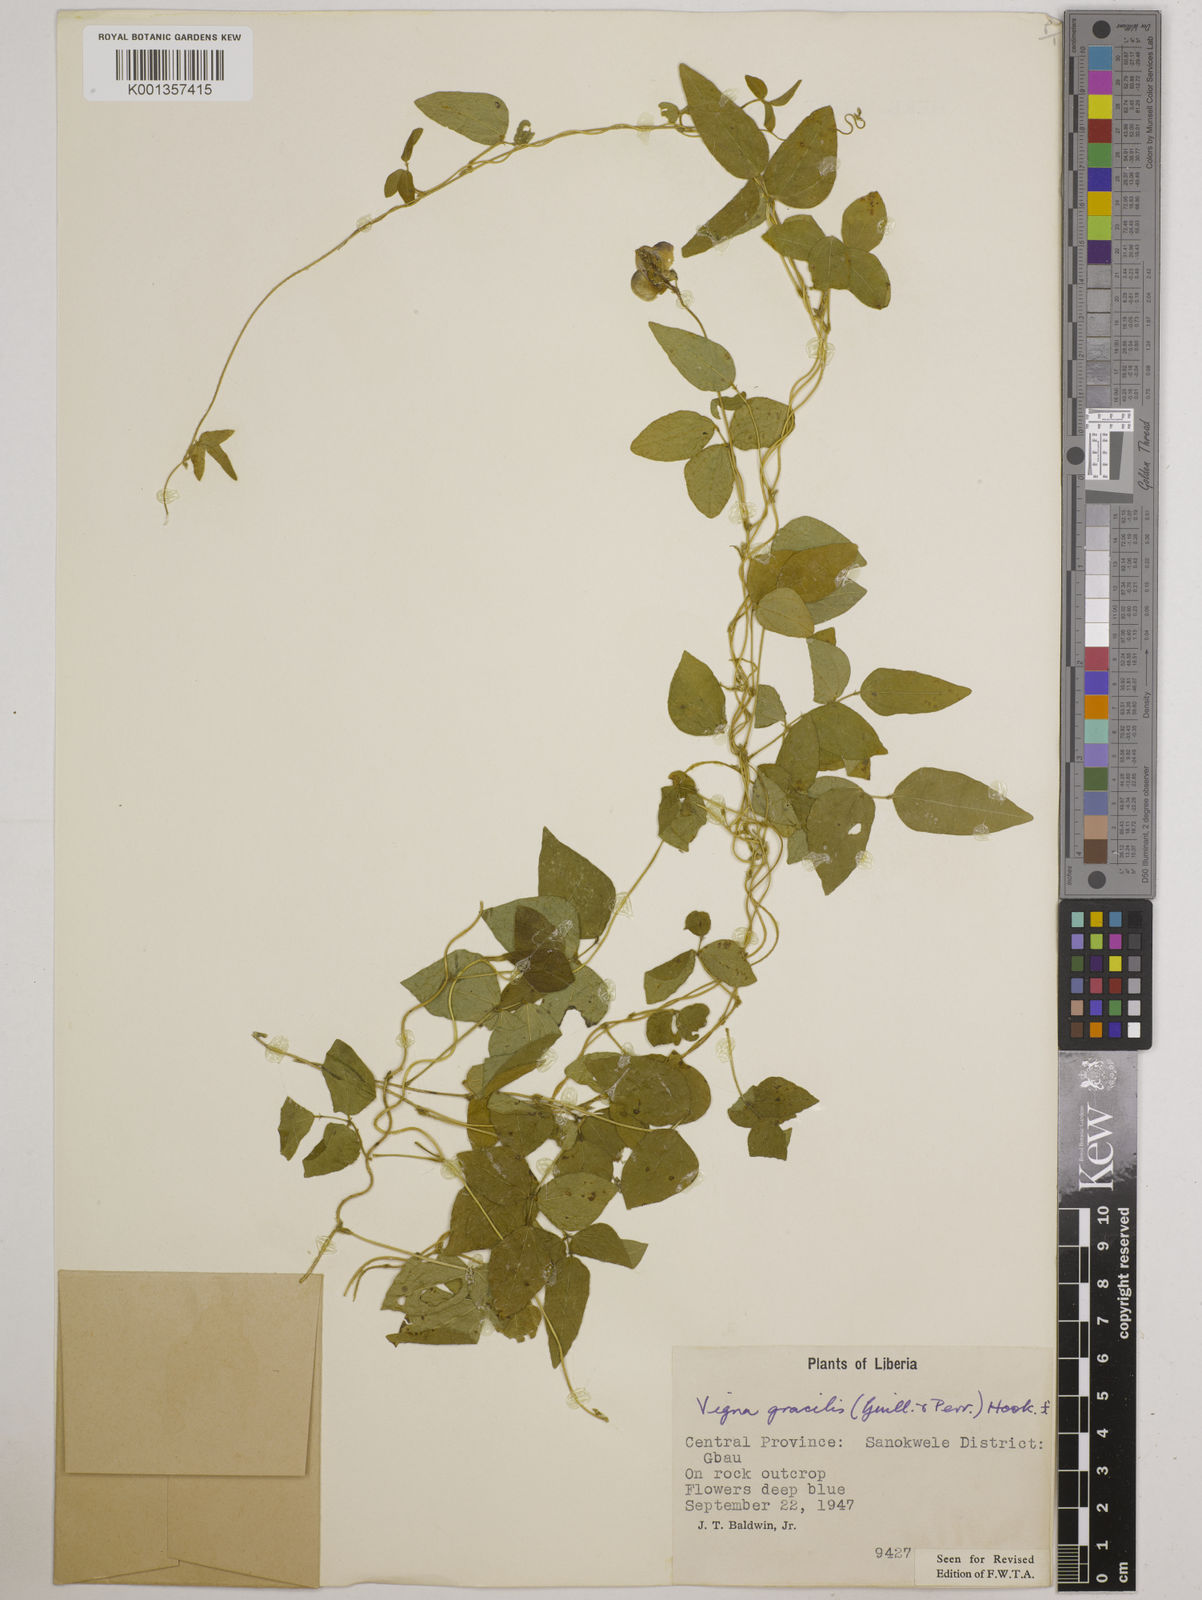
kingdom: Plantae
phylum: Tracheophyta
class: Magnoliopsida
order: Fabales
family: Fabaceae
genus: Vigna
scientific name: Vigna gracilis
